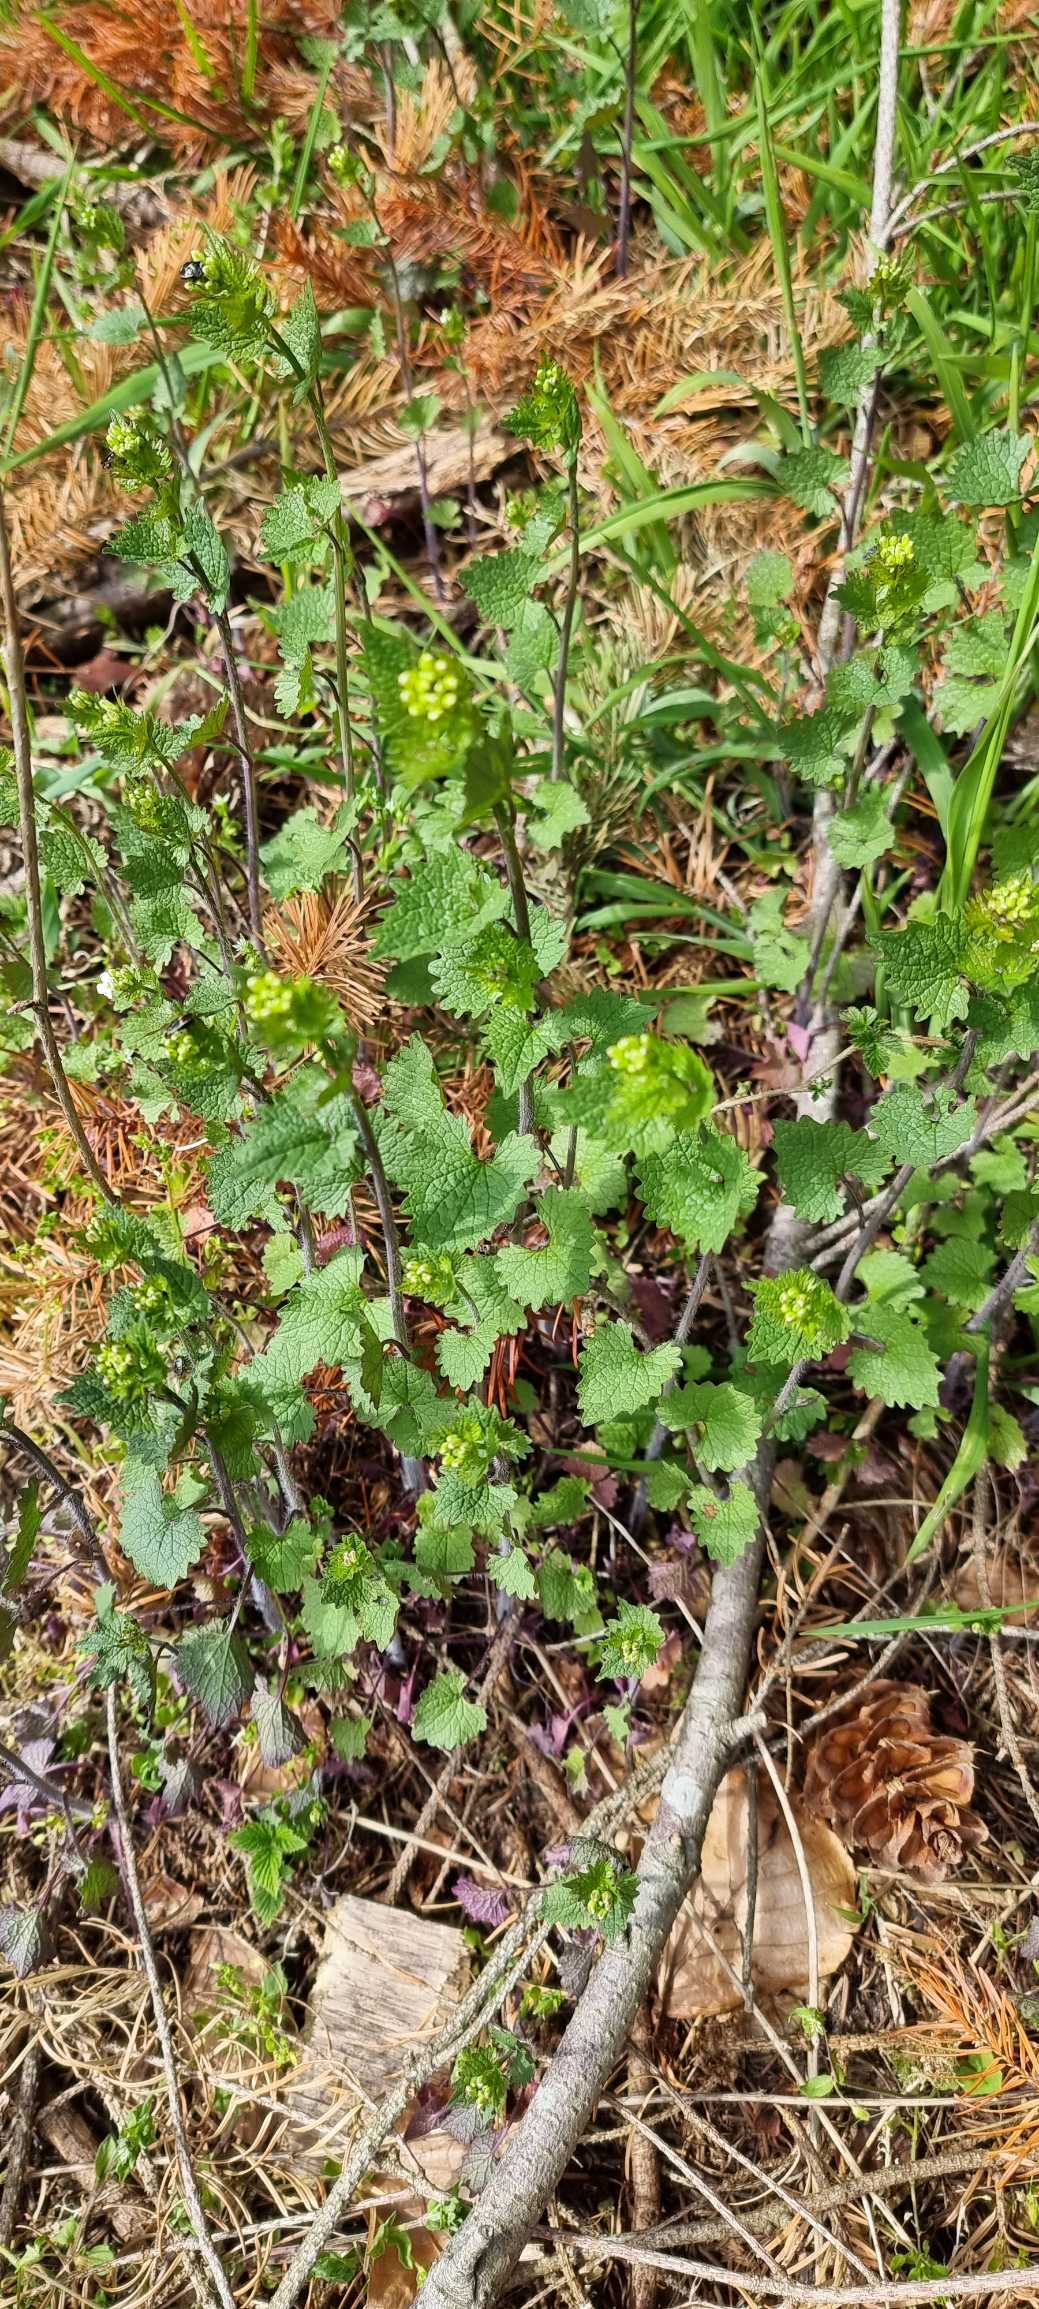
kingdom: Plantae
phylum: Tracheophyta
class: Magnoliopsida
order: Brassicales
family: Brassicaceae
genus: Alliaria
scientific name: Alliaria petiolata
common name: Løgkarse
